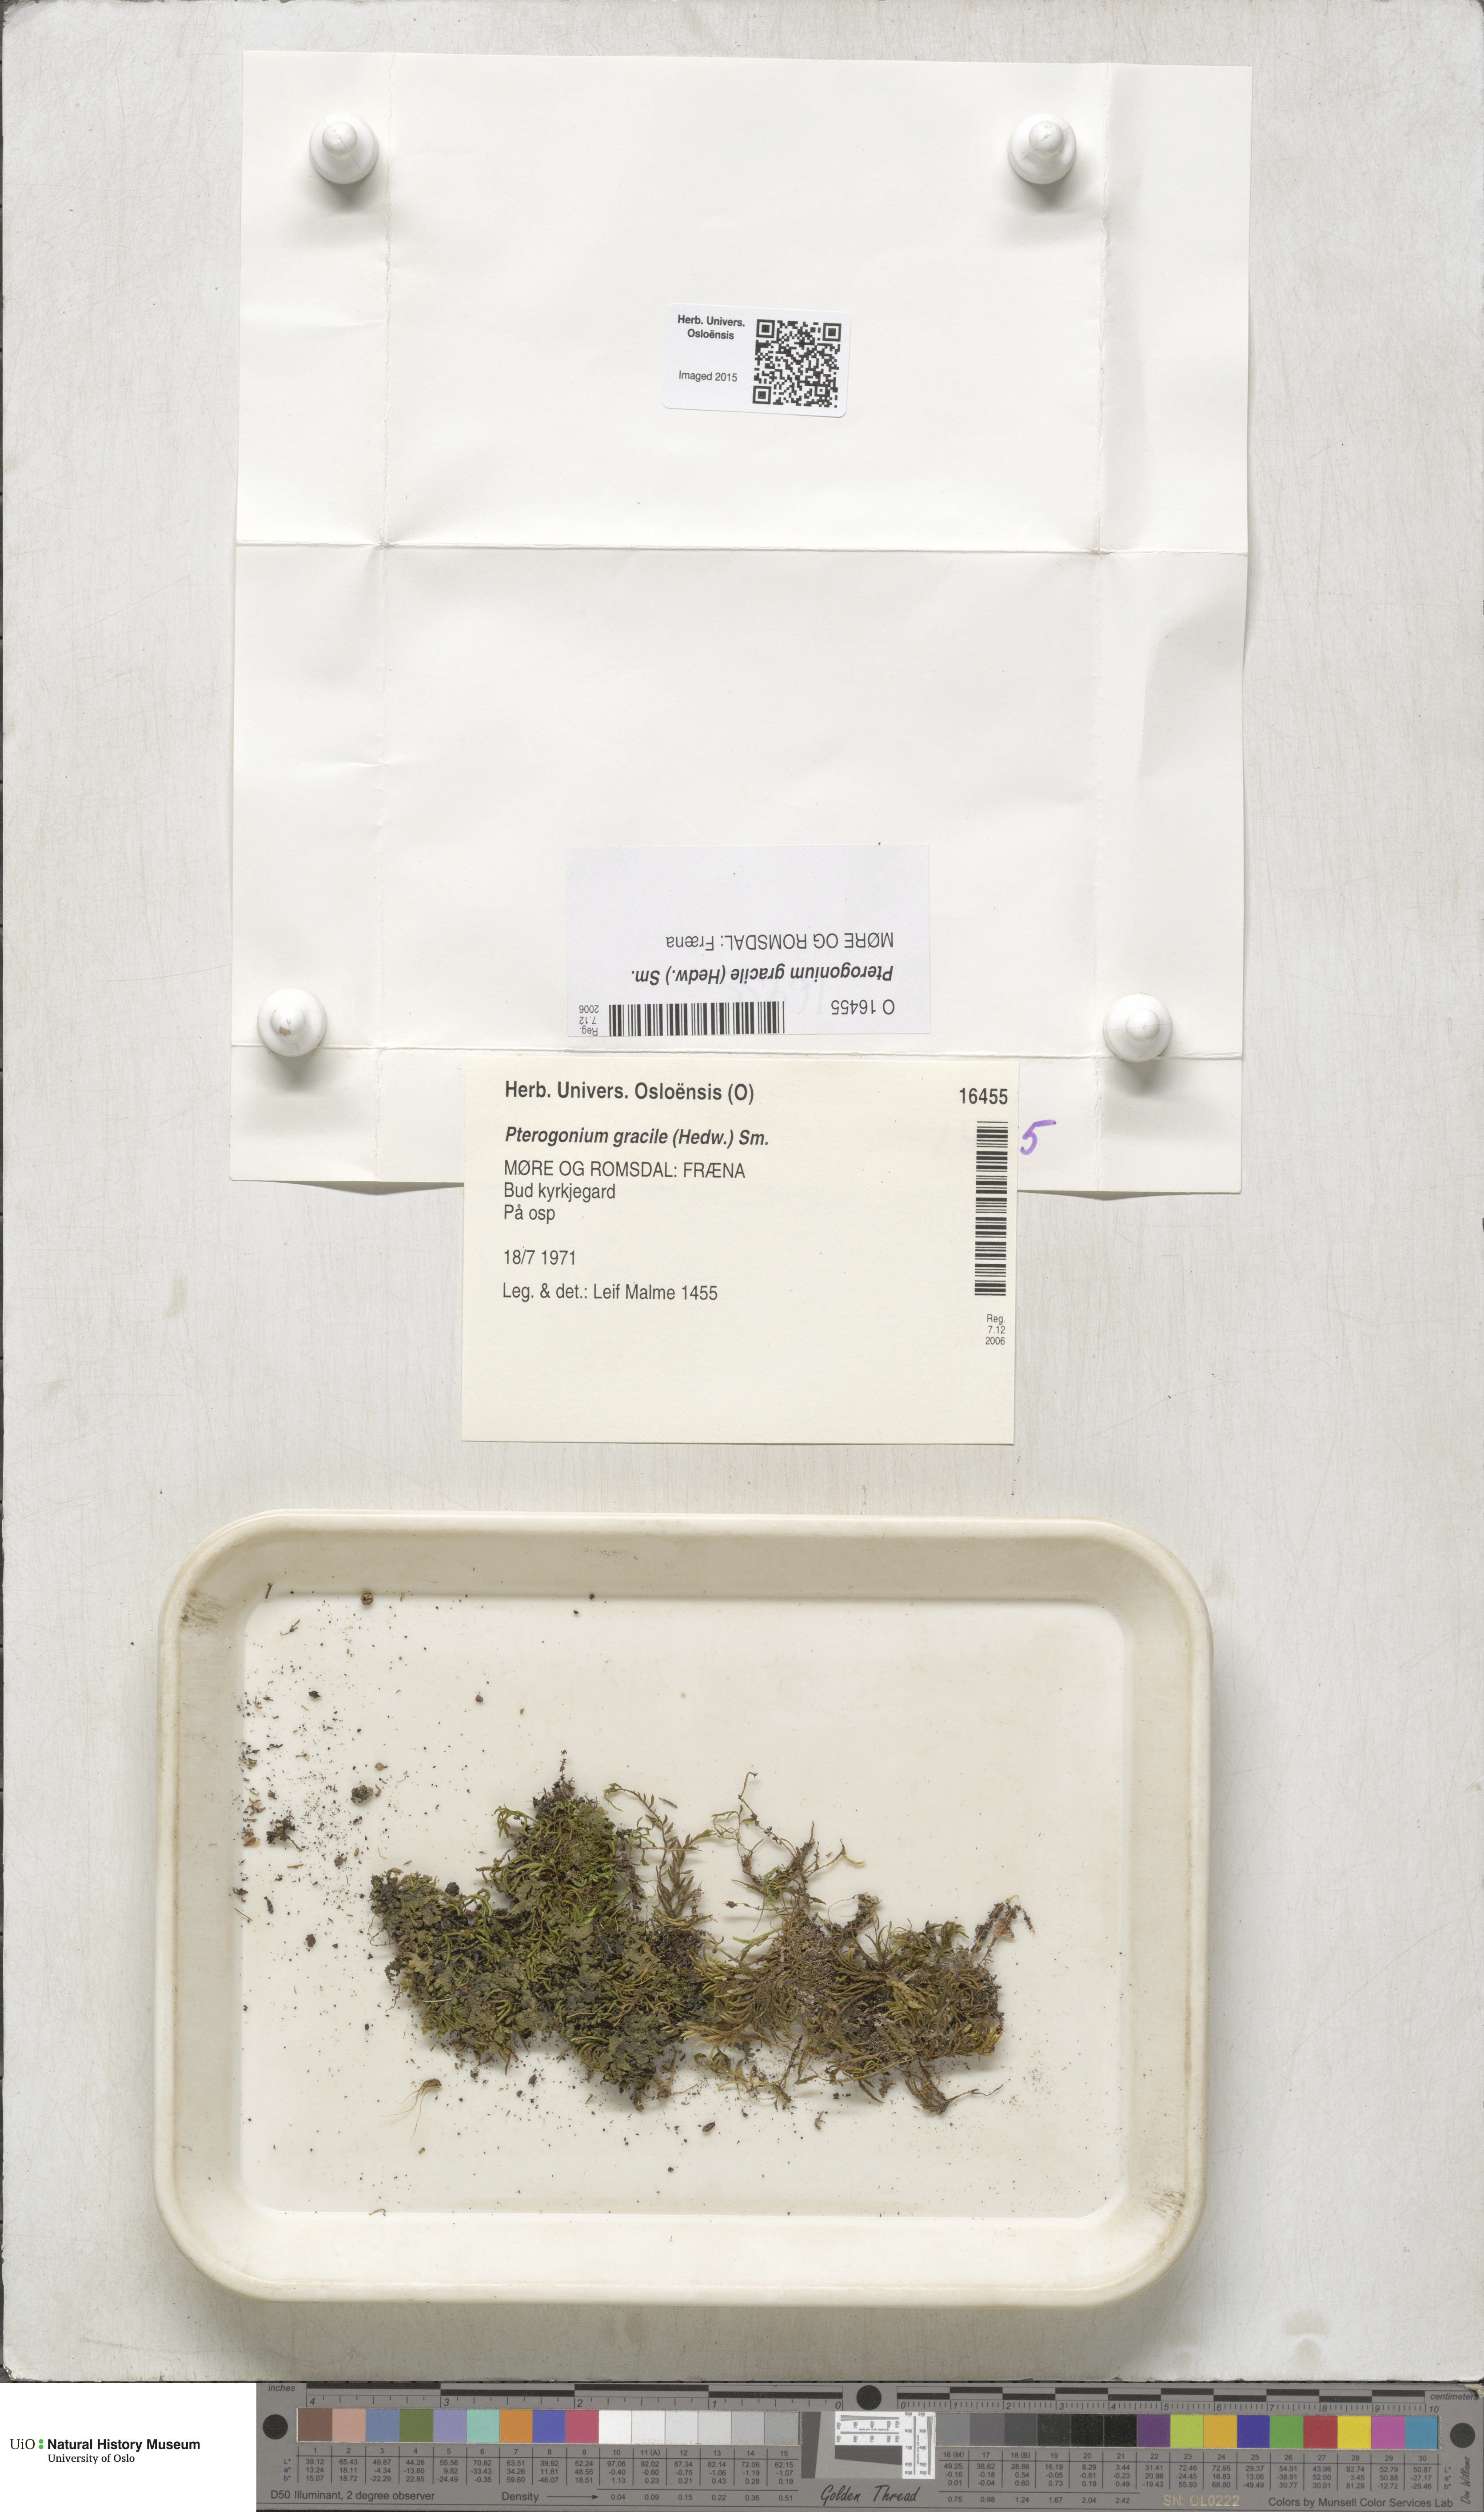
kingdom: Plantae
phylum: Bryophyta
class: Bryopsida
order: Hypnales
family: Lembophyllaceae
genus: Nogopterium
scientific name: Nogopterium gracile
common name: Bird's-foot wing-moss
